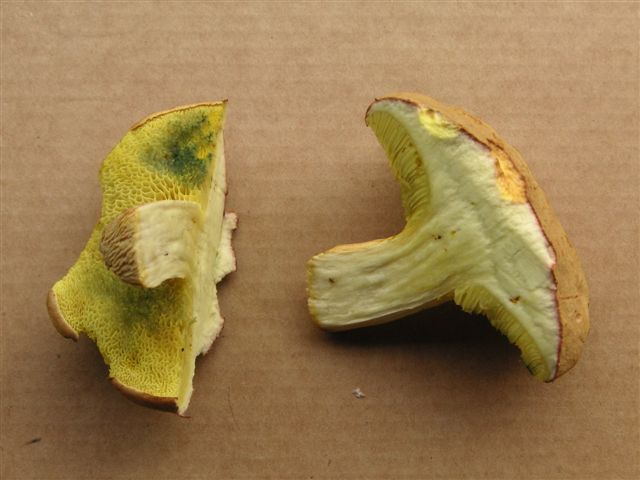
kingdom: Fungi
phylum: Basidiomycota
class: Agaricomycetes
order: Boletales
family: Boletaceae
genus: Xerocomus
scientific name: Xerocomus subtomentosus
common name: filtet rørhat
